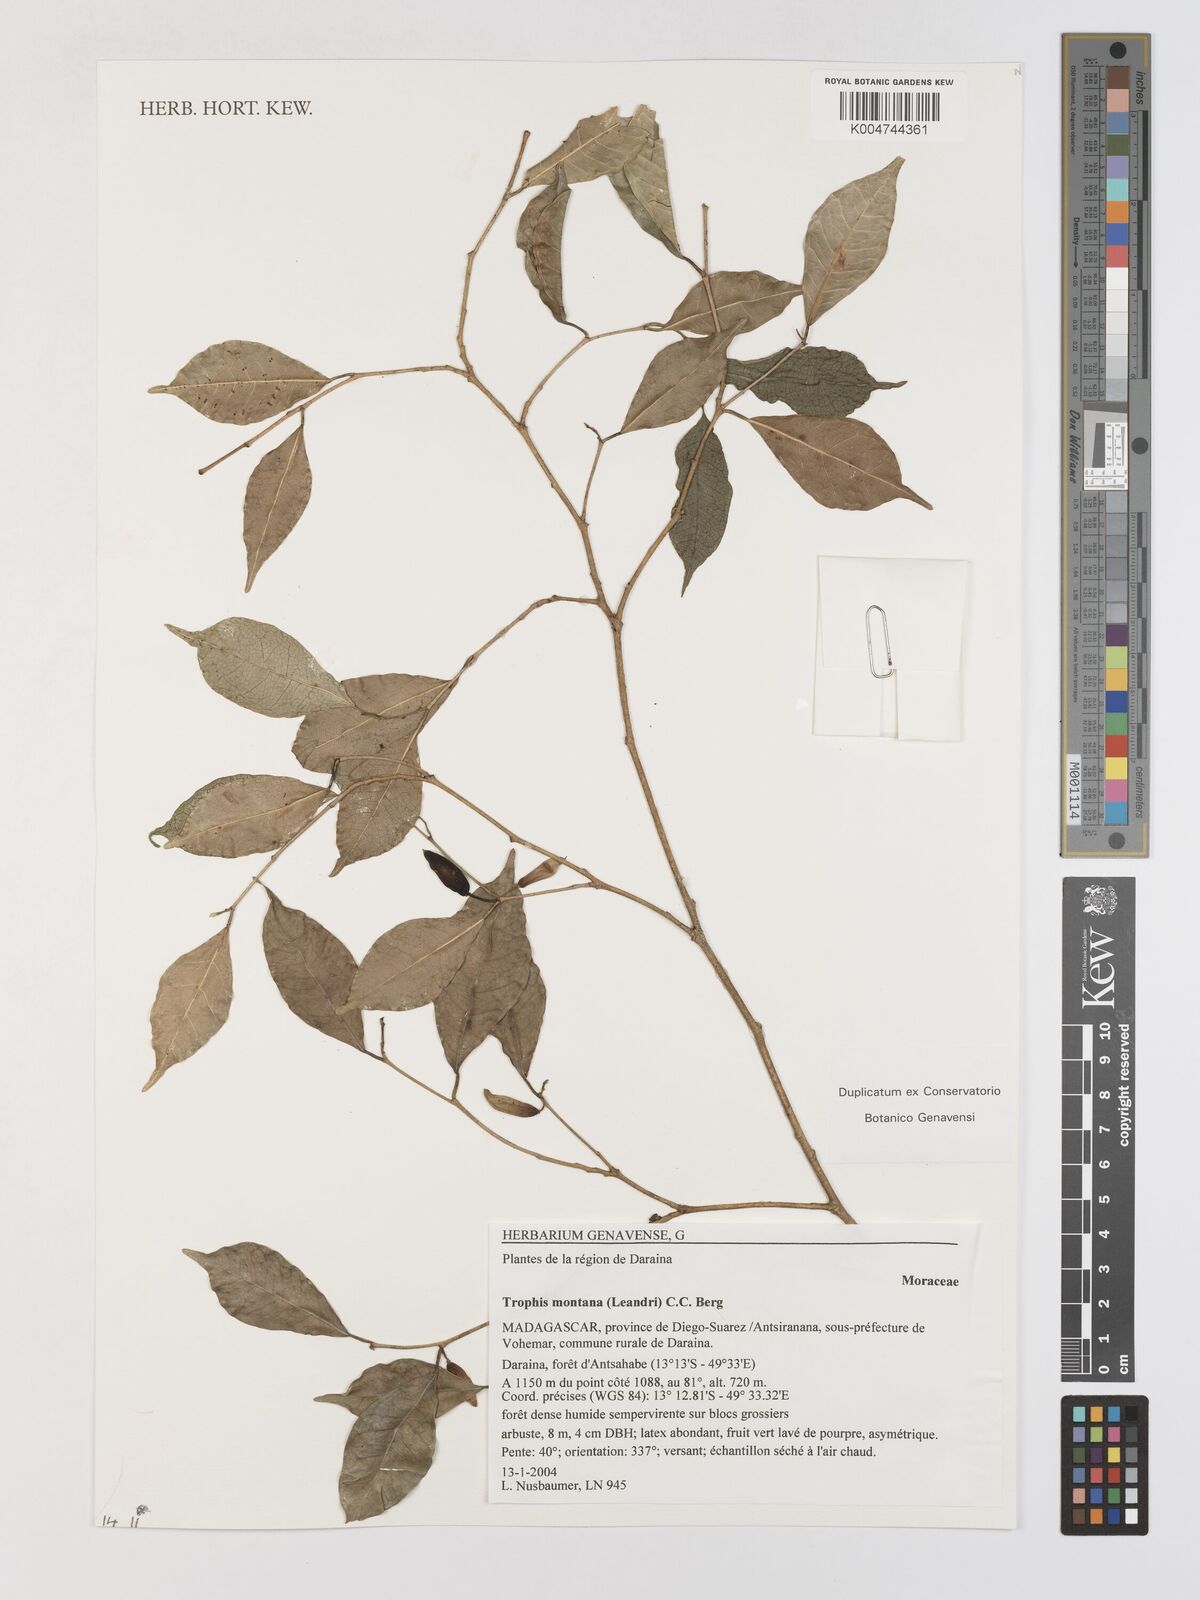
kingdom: Plantae
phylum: Tracheophyta
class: Magnoliopsida
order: Rosales
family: Moraceae
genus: Maillardia
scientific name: Maillardia montana
